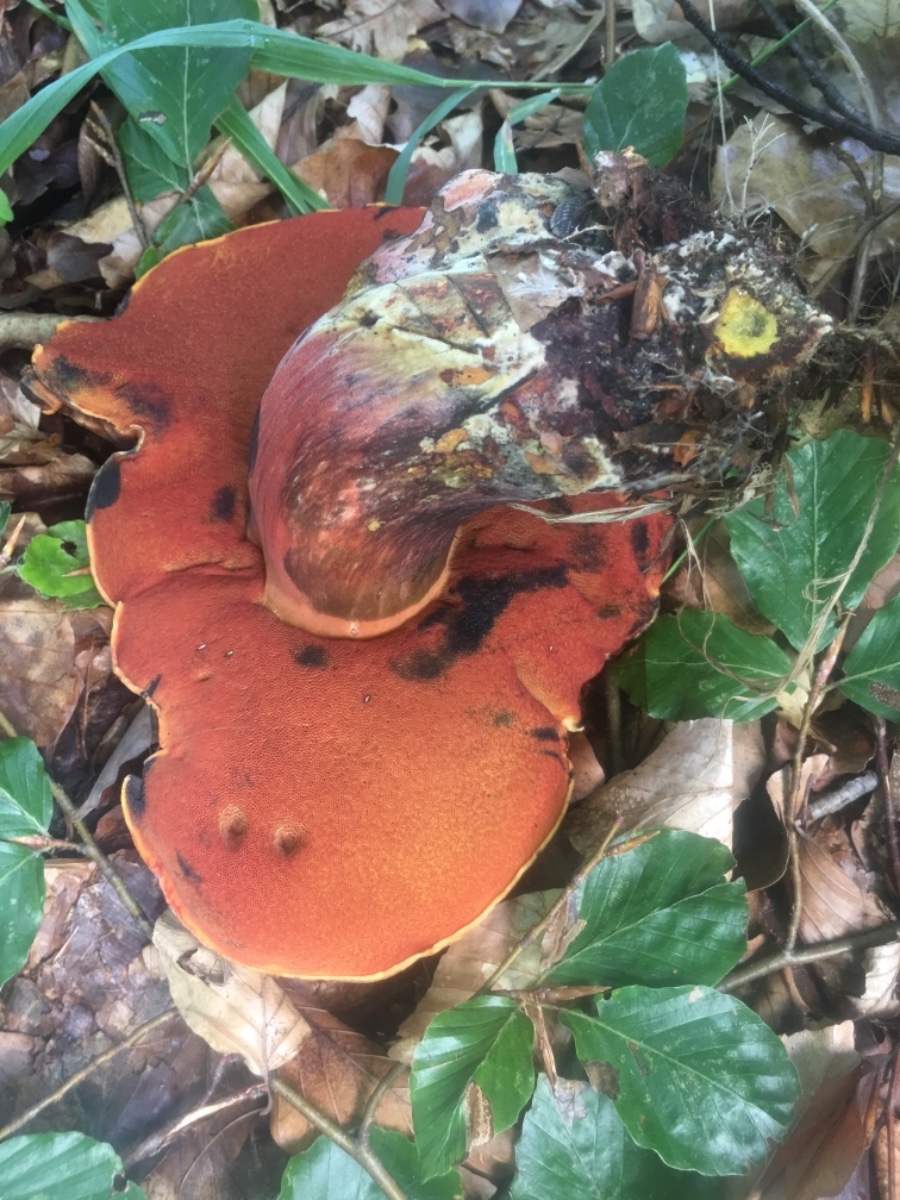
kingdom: Fungi
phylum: Basidiomycota
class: Agaricomycetes
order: Boletales
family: Boletaceae
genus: Neoboletus
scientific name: Neoboletus erythropus
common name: punktstokket indigorørhat
